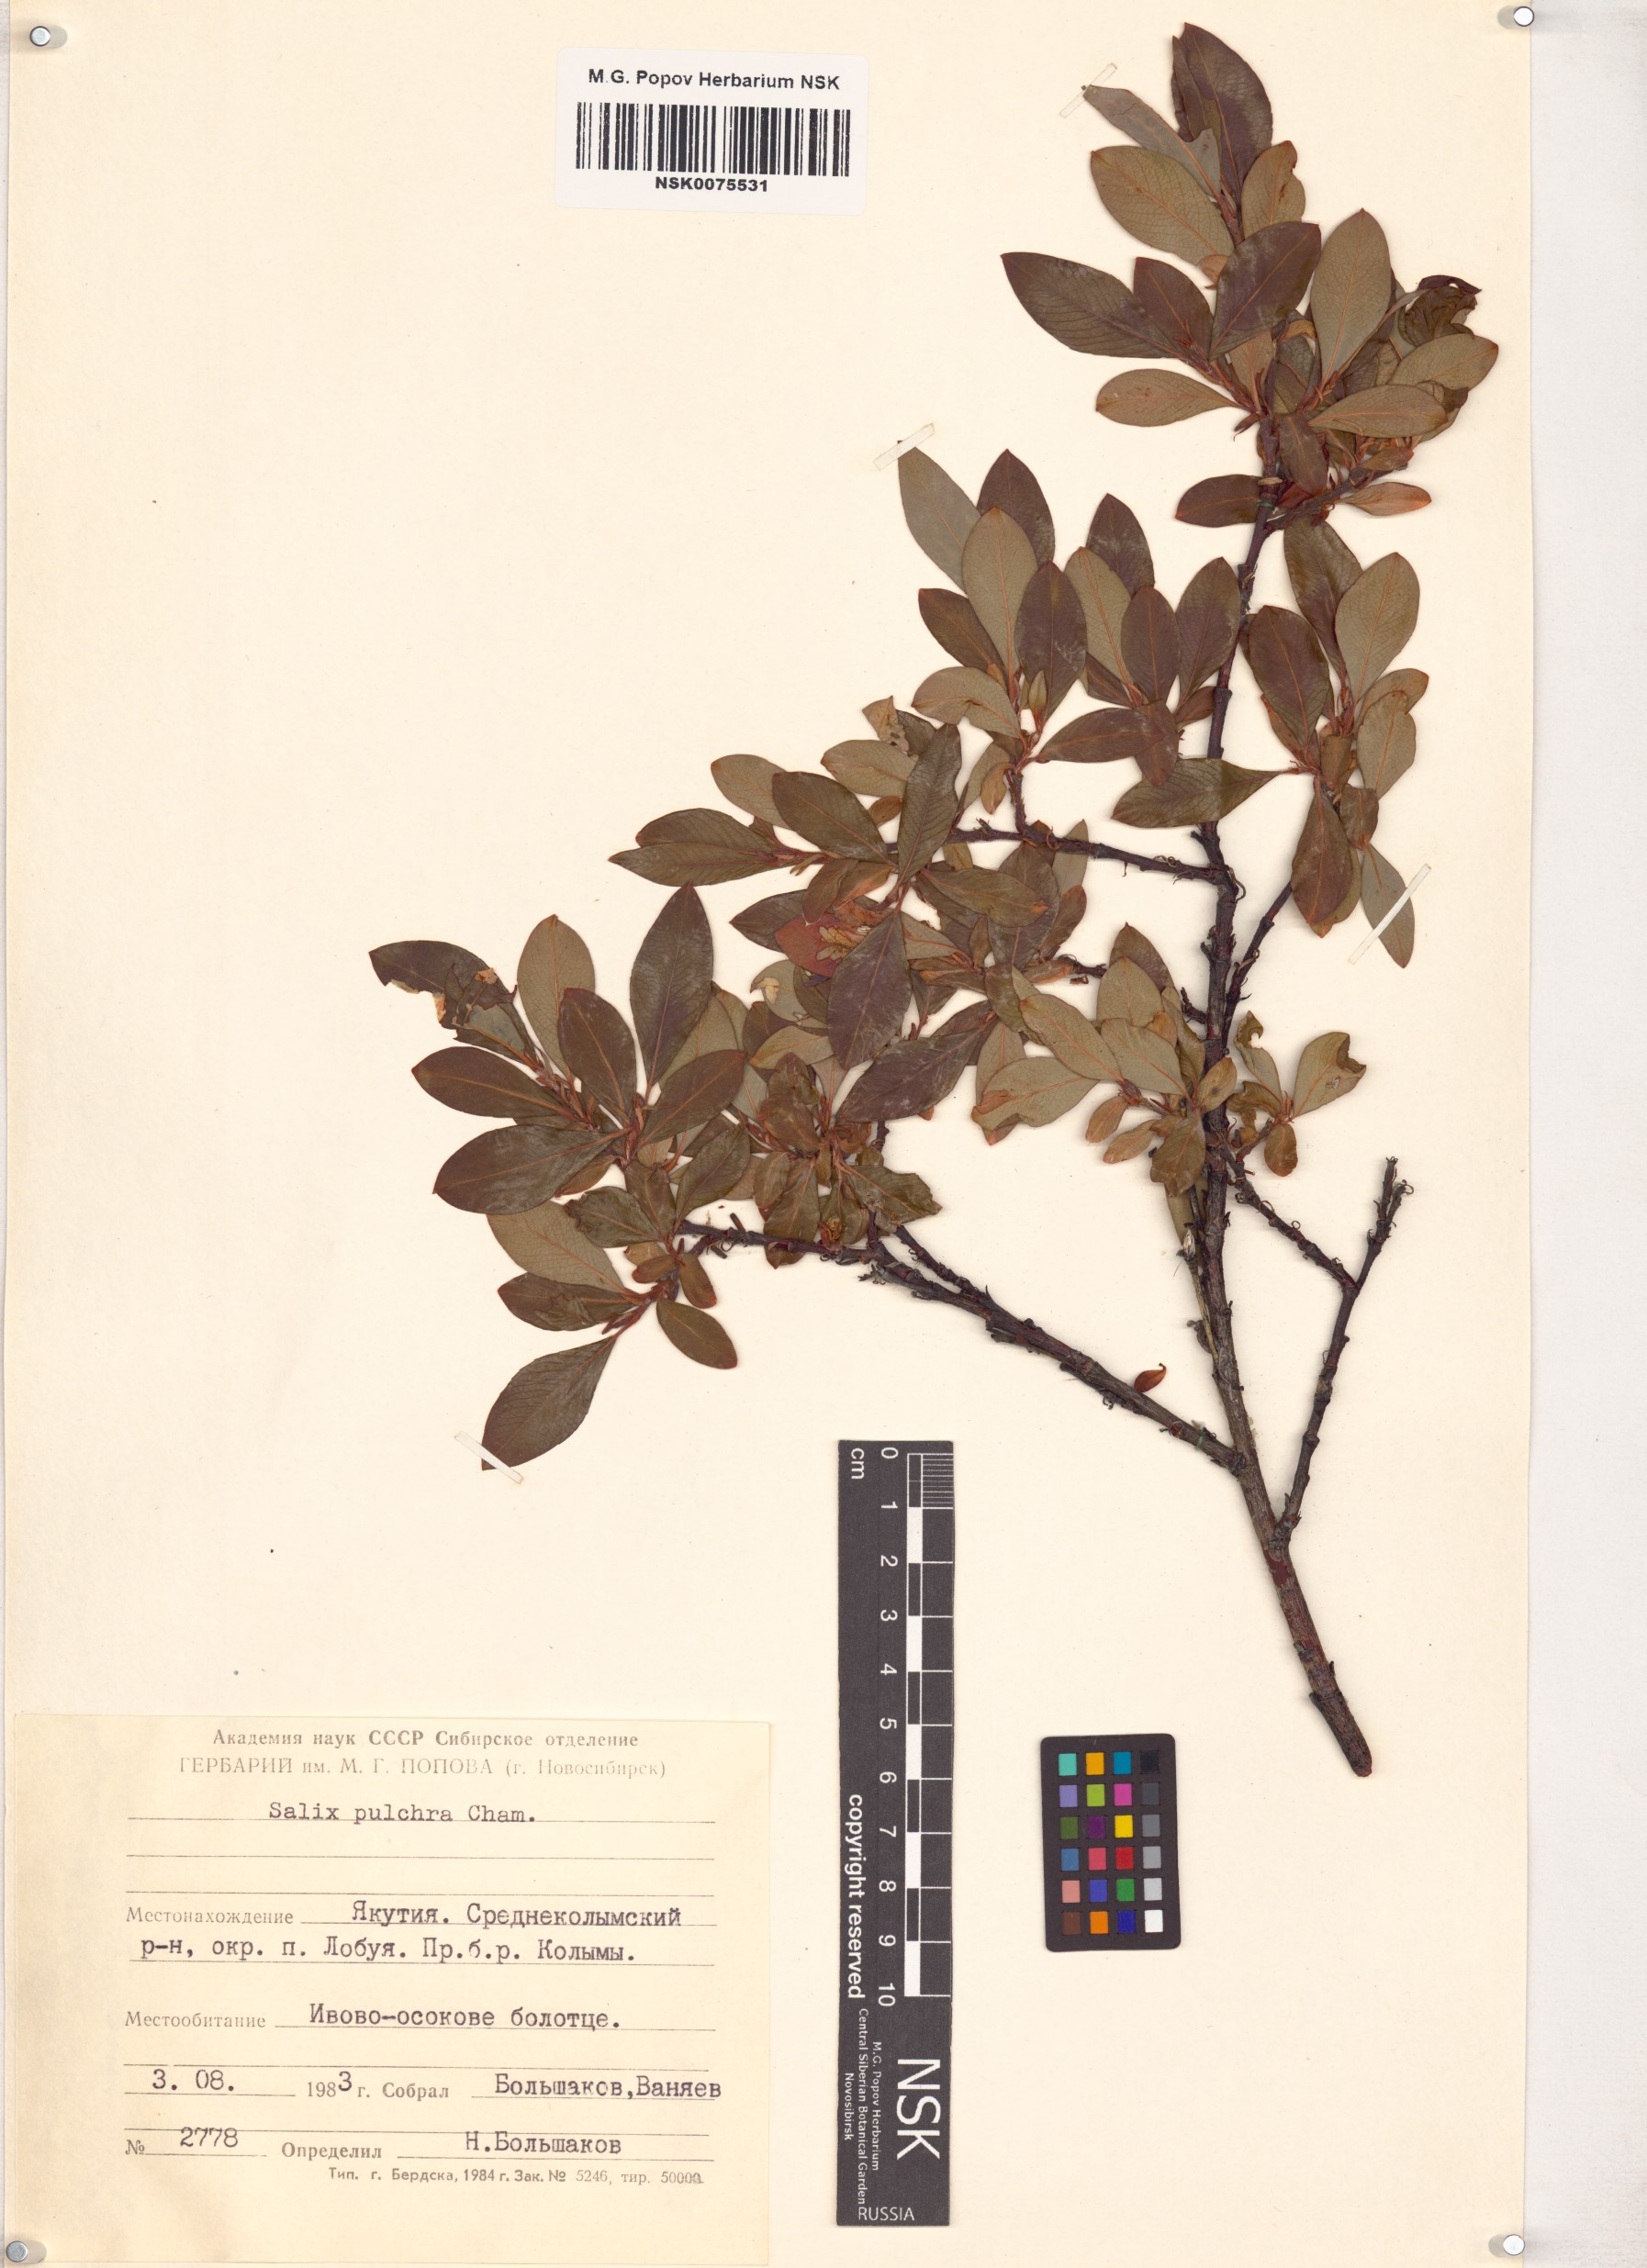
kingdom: Plantae
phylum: Tracheophyta
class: Magnoliopsida
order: Malpighiales
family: Salicaceae
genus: Salix
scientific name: Salix pulchra
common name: Diamond-leaved willow
